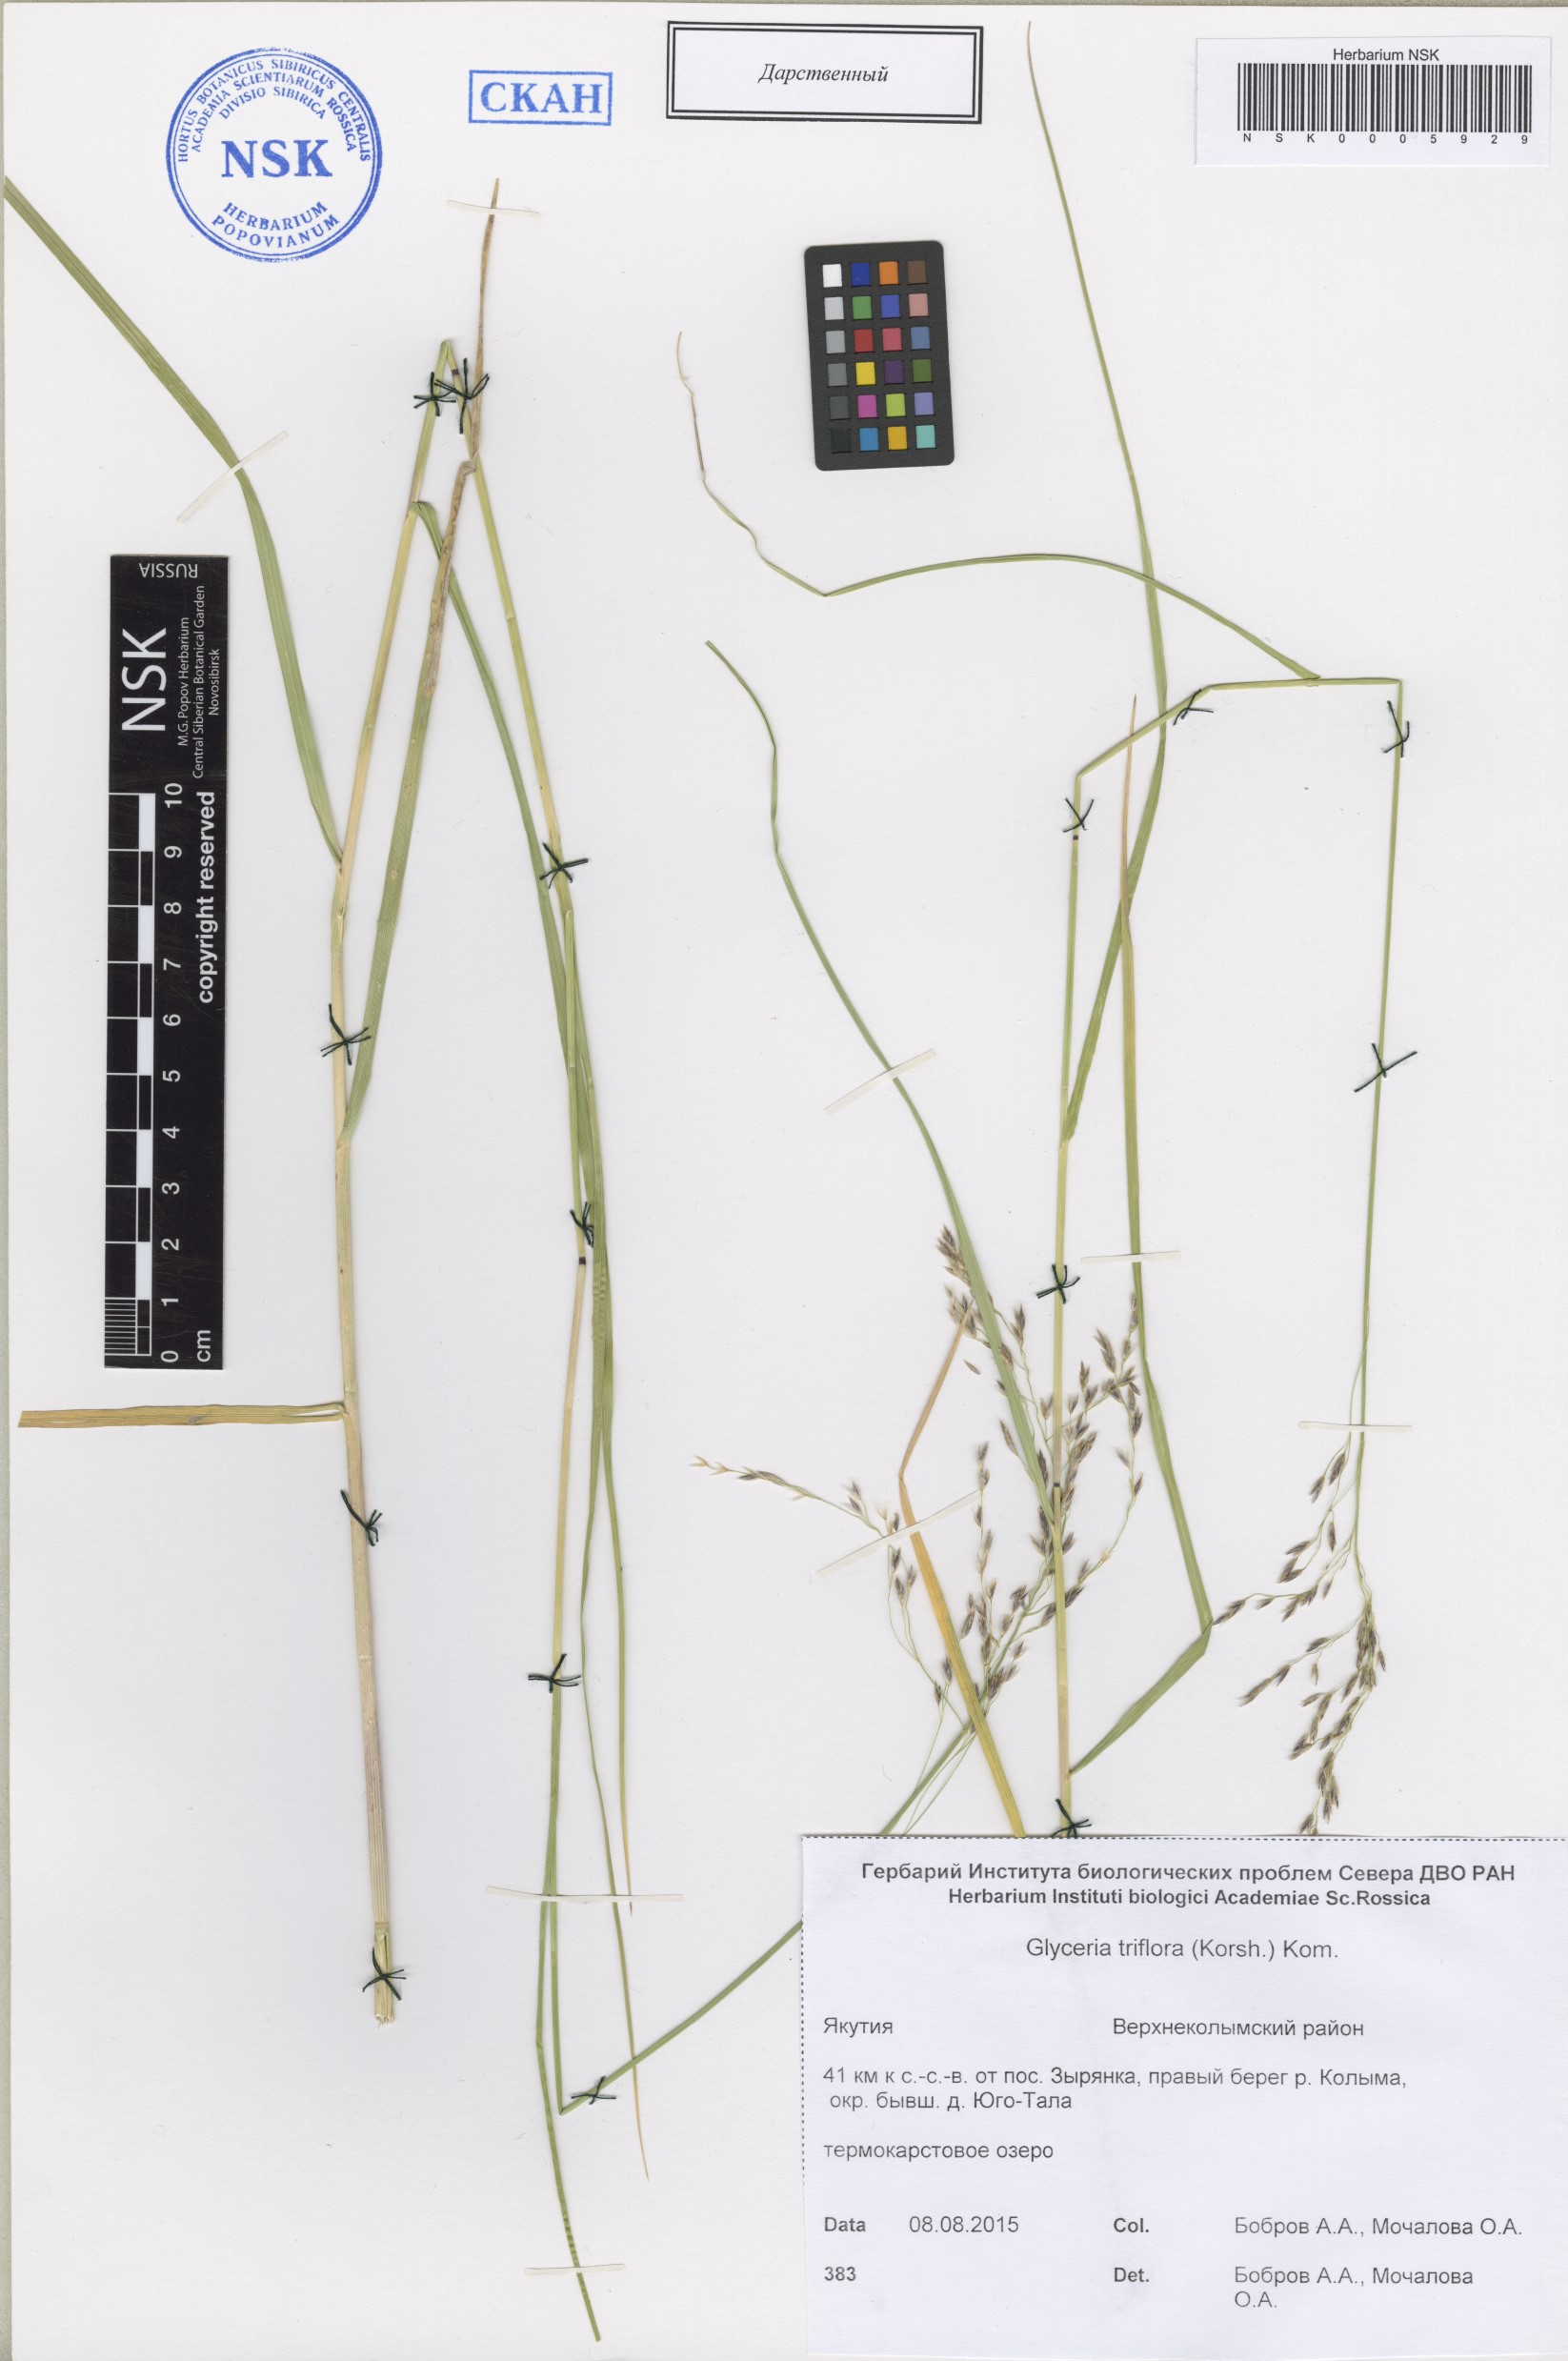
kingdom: Plantae
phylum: Tracheophyta
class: Liliopsida
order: Poales
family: Poaceae
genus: Glyceria
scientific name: Glyceria lithuanica
